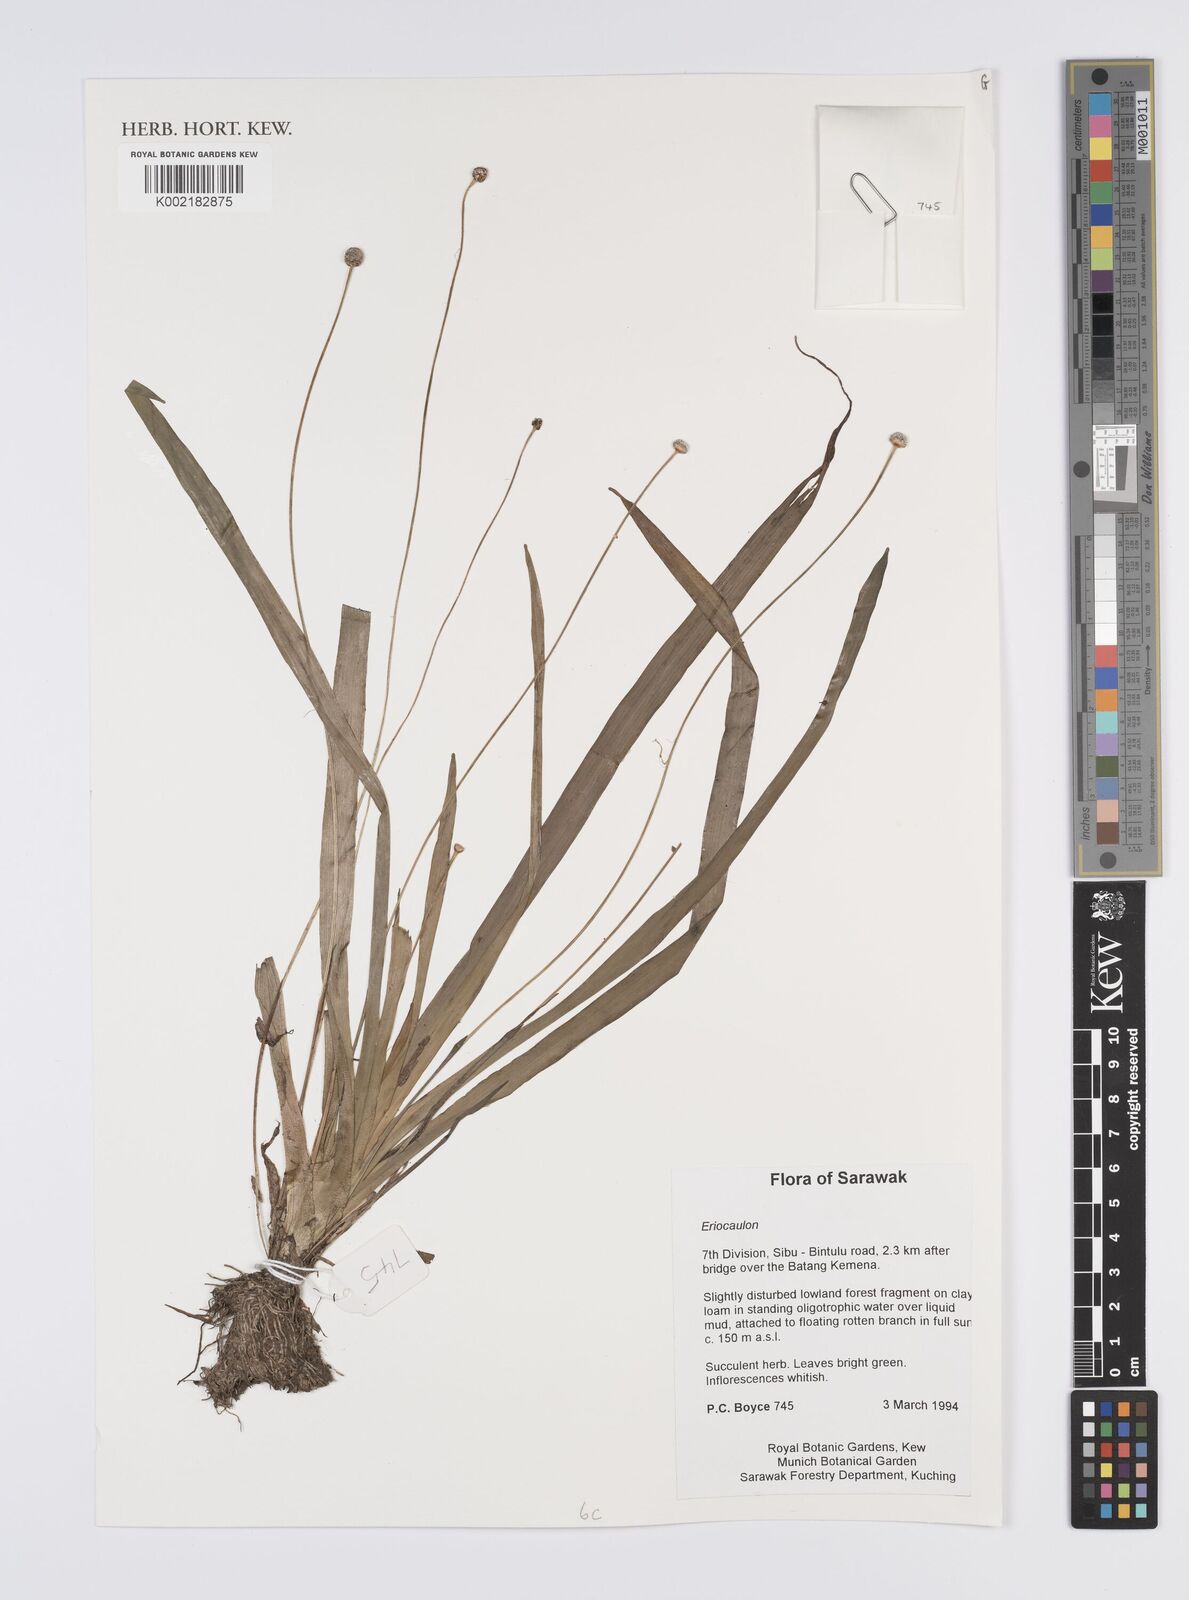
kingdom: Plantae
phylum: Tracheophyta
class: Liliopsida
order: Poales
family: Eriocaulaceae
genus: Eriocaulon
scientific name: Eriocaulon
